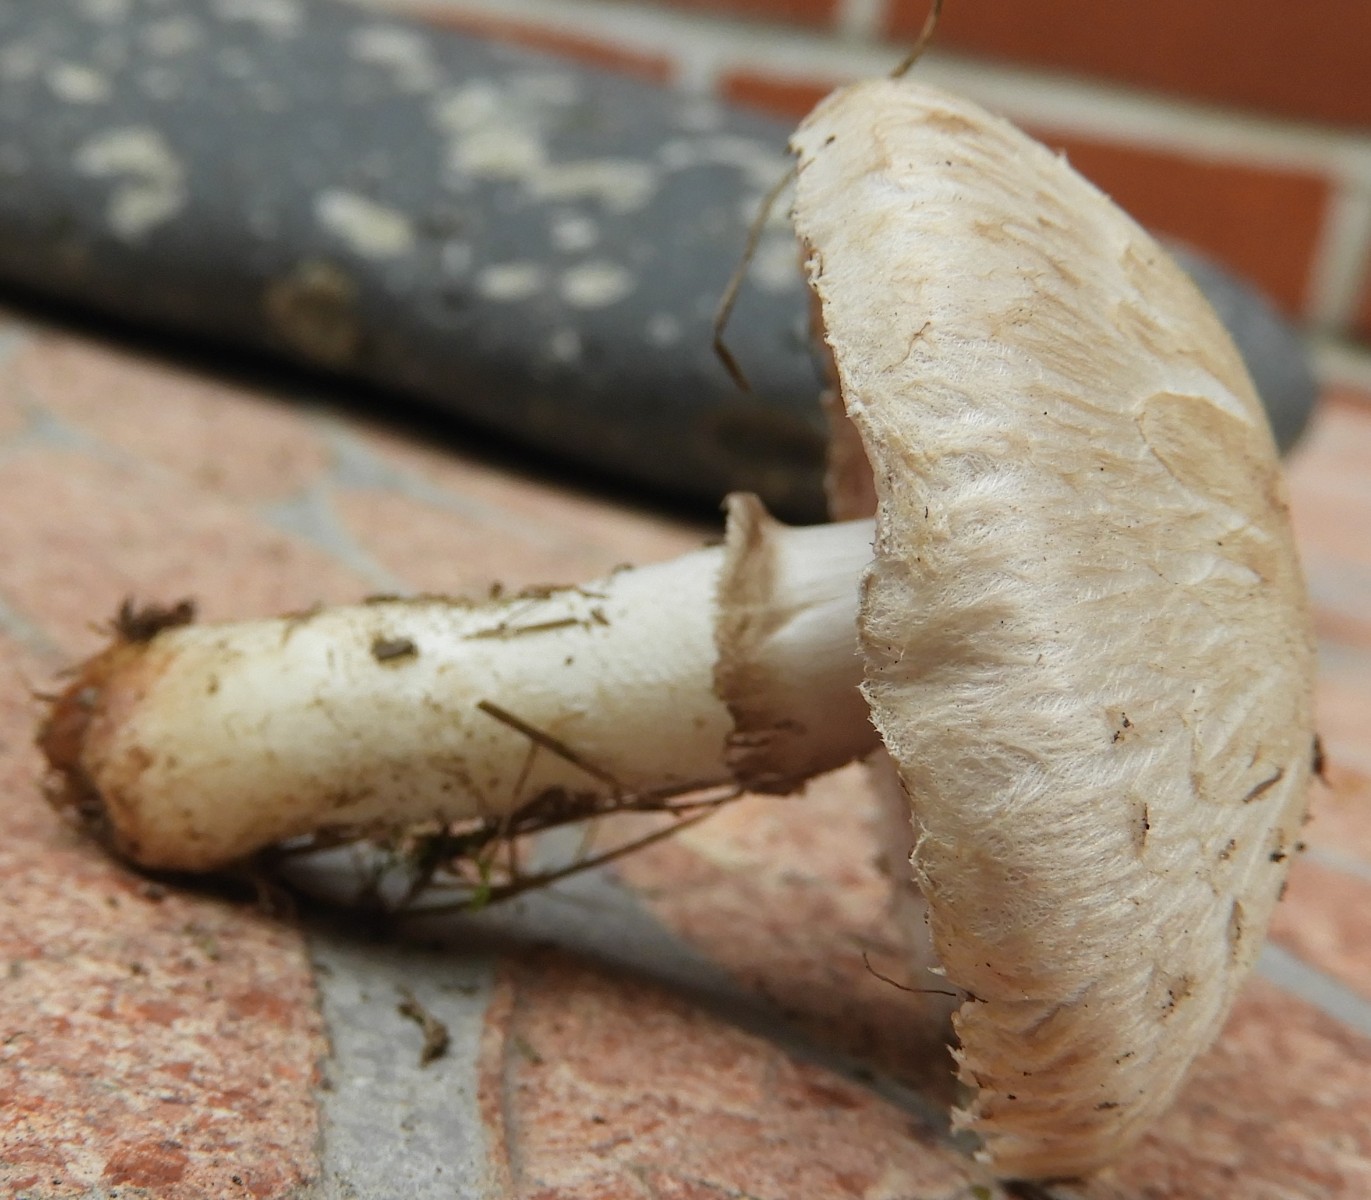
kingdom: Fungi
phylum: Basidiomycota
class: Agaricomycetes
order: Agaricales
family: Agaricaceae
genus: Agaricus
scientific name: Agaricus campestris
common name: mark-champignon
